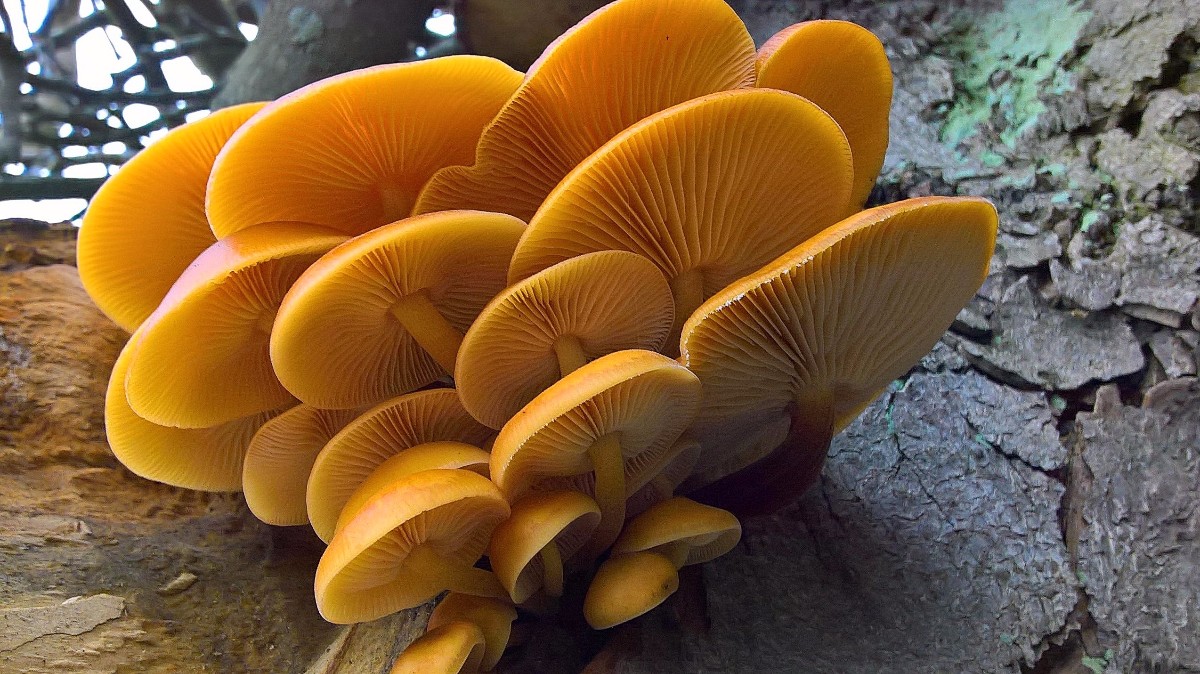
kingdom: Fungi
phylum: Basidiomycota
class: Agaricomycetes
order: Agaricales
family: Physalacriaceae
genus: Flammulina
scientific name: Flammulina velutipes
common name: gul fløjlsfod
